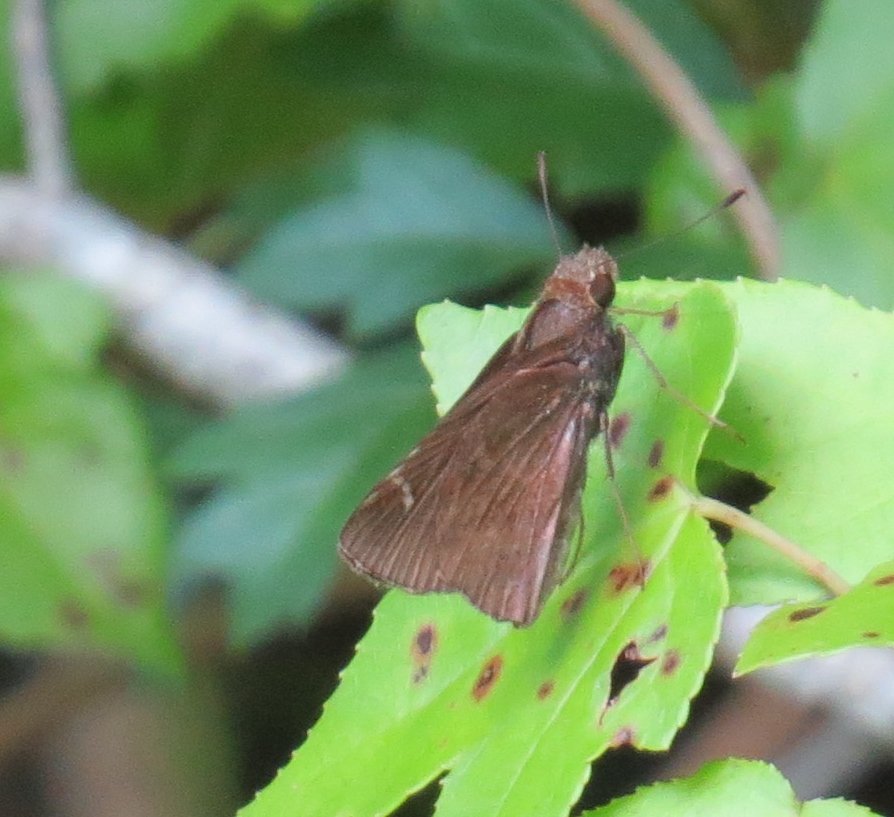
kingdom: Animalia
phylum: Arthropoda
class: Insecta
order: Lepidoptera
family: Hesperiidae
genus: Lerema
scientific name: Lerema accius
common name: Clouded Skipper
